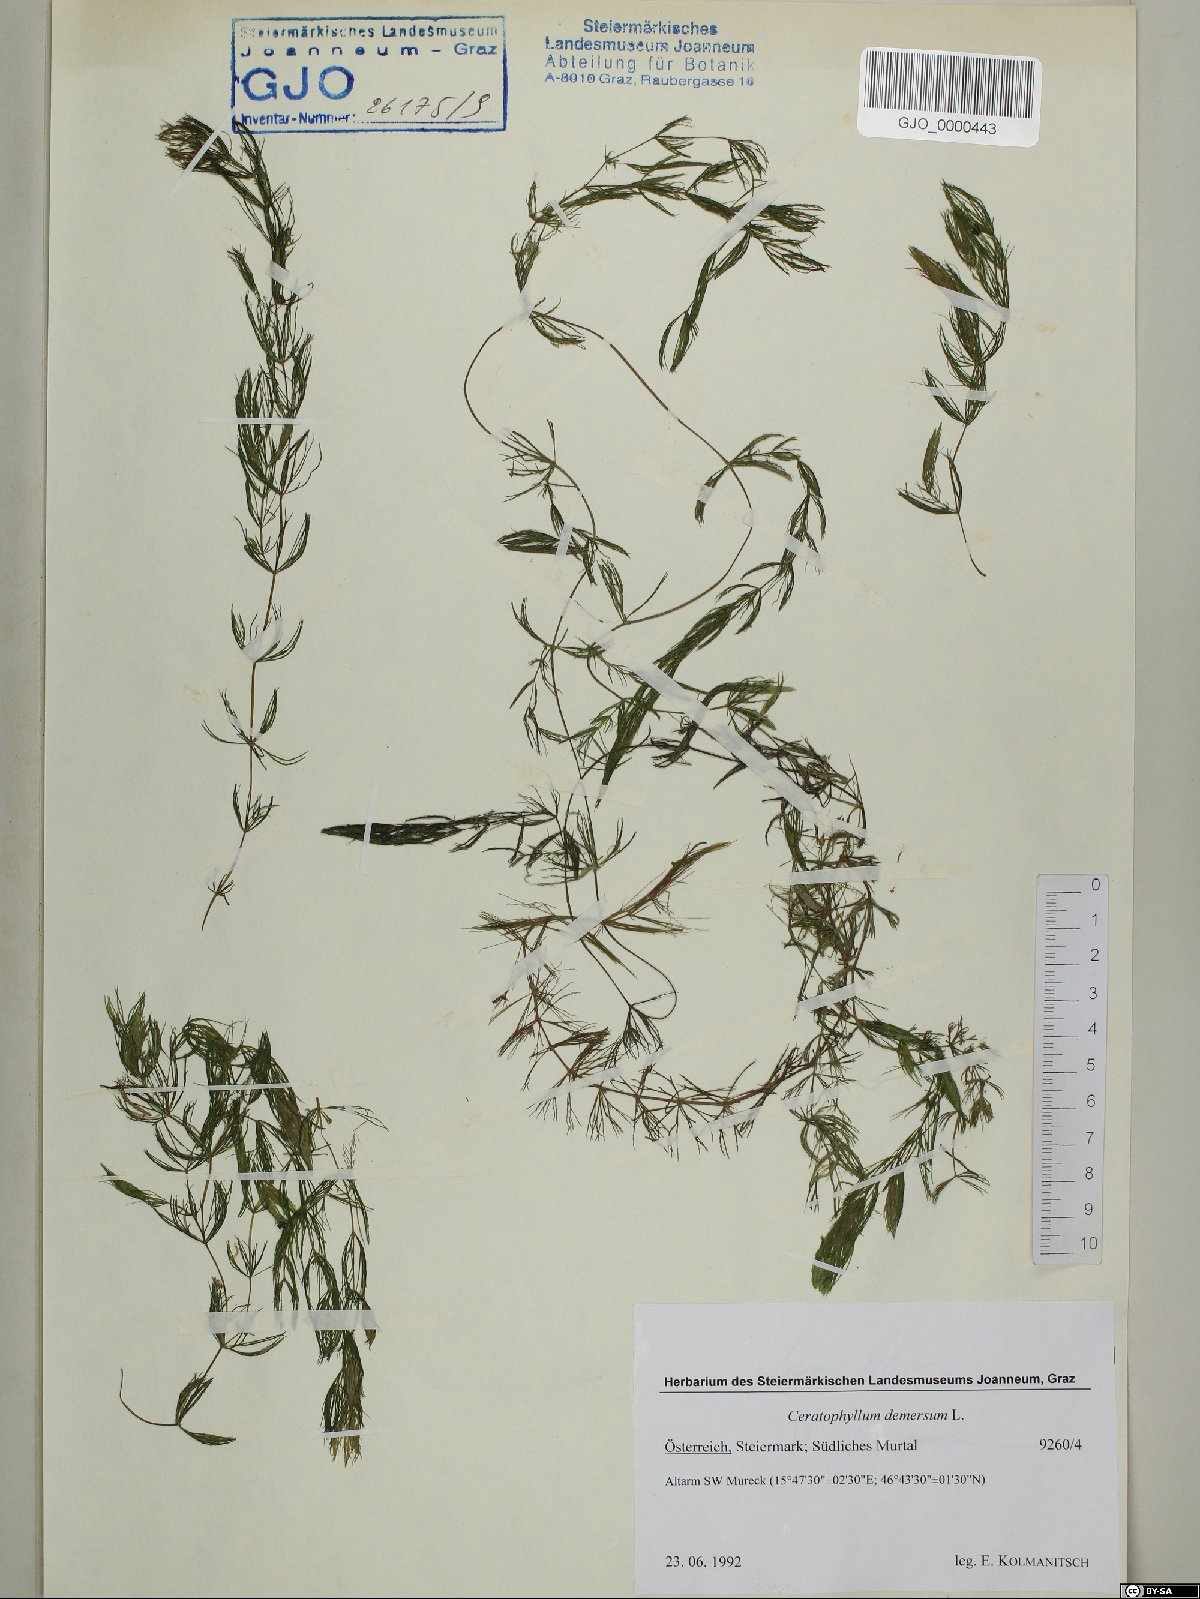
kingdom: Plantae
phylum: Tracheophyta
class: Magnoliopsida
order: Ceratophyllales
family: Ceratophyllaceae
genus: Ceratophyllum
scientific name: Ceratophyllum demersum
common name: Rigid hornwort
